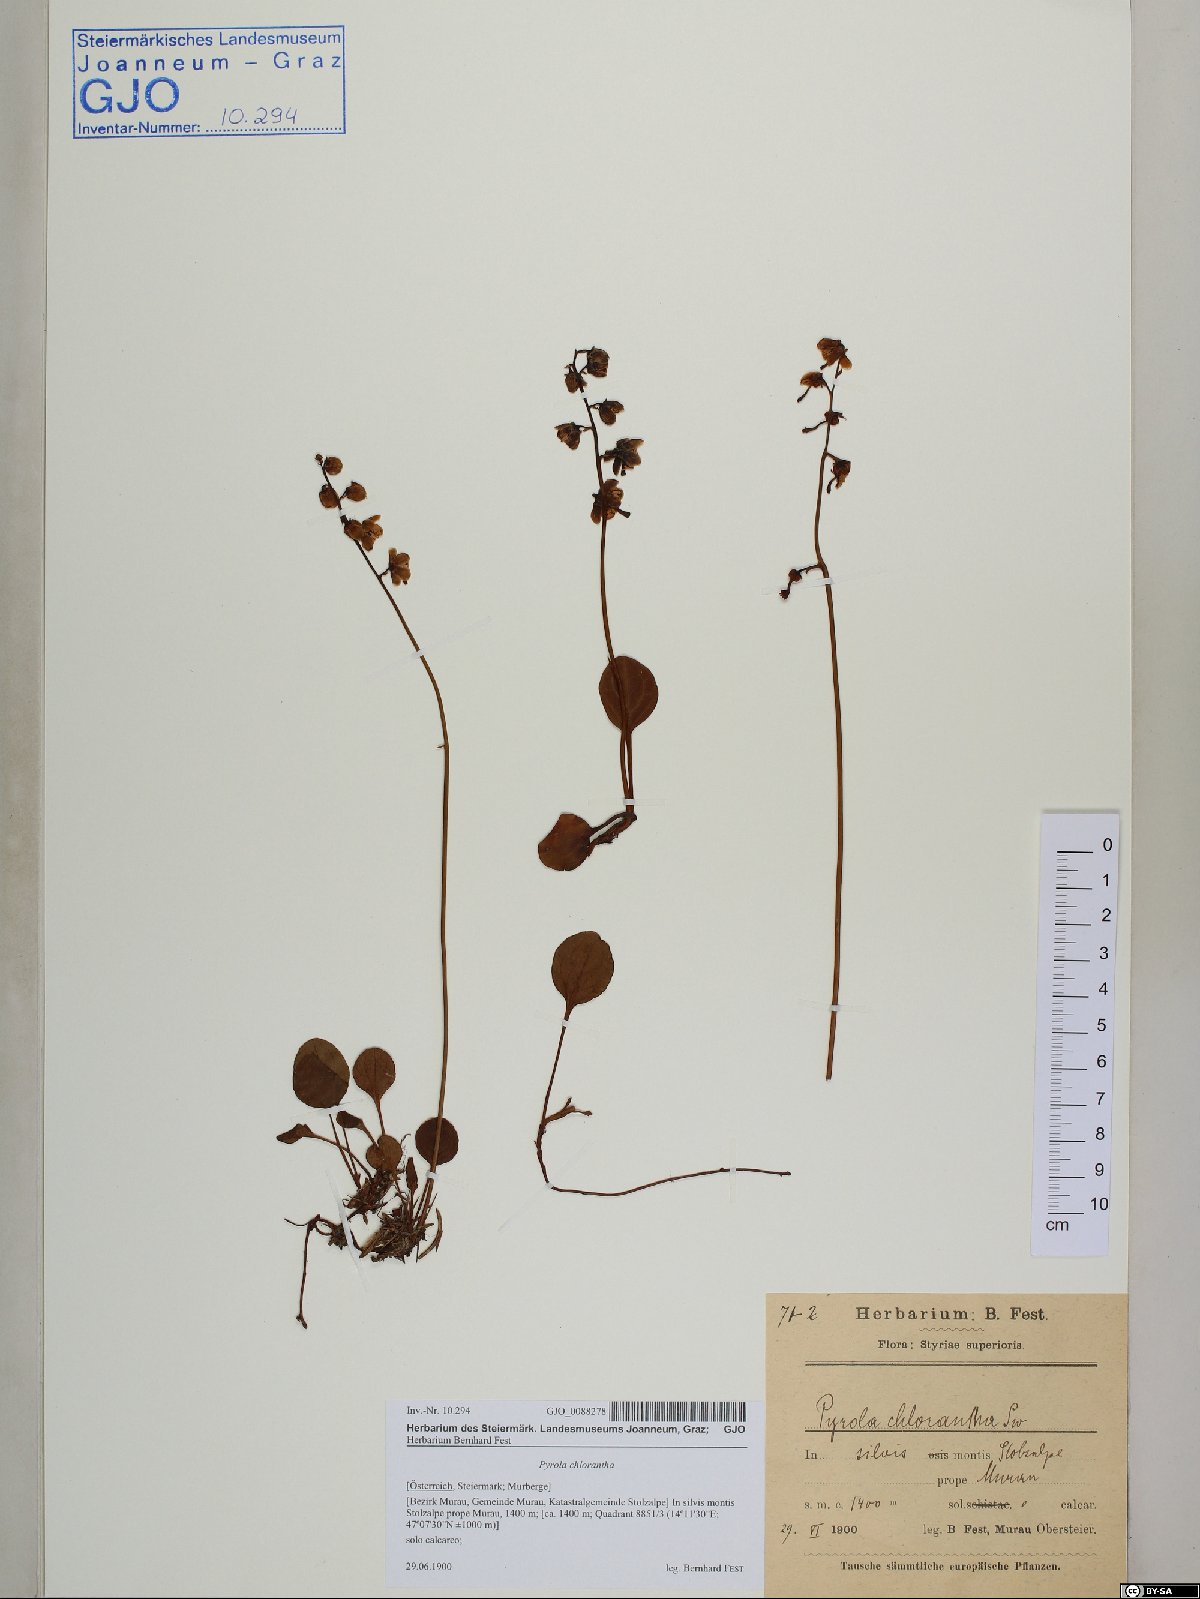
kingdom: Plantae
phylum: Tracheophyta
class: Magnoliopsida
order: Ericales
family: Ericaceae
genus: Pyrola
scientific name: Pyrola chlorantha
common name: Green wintergreen
